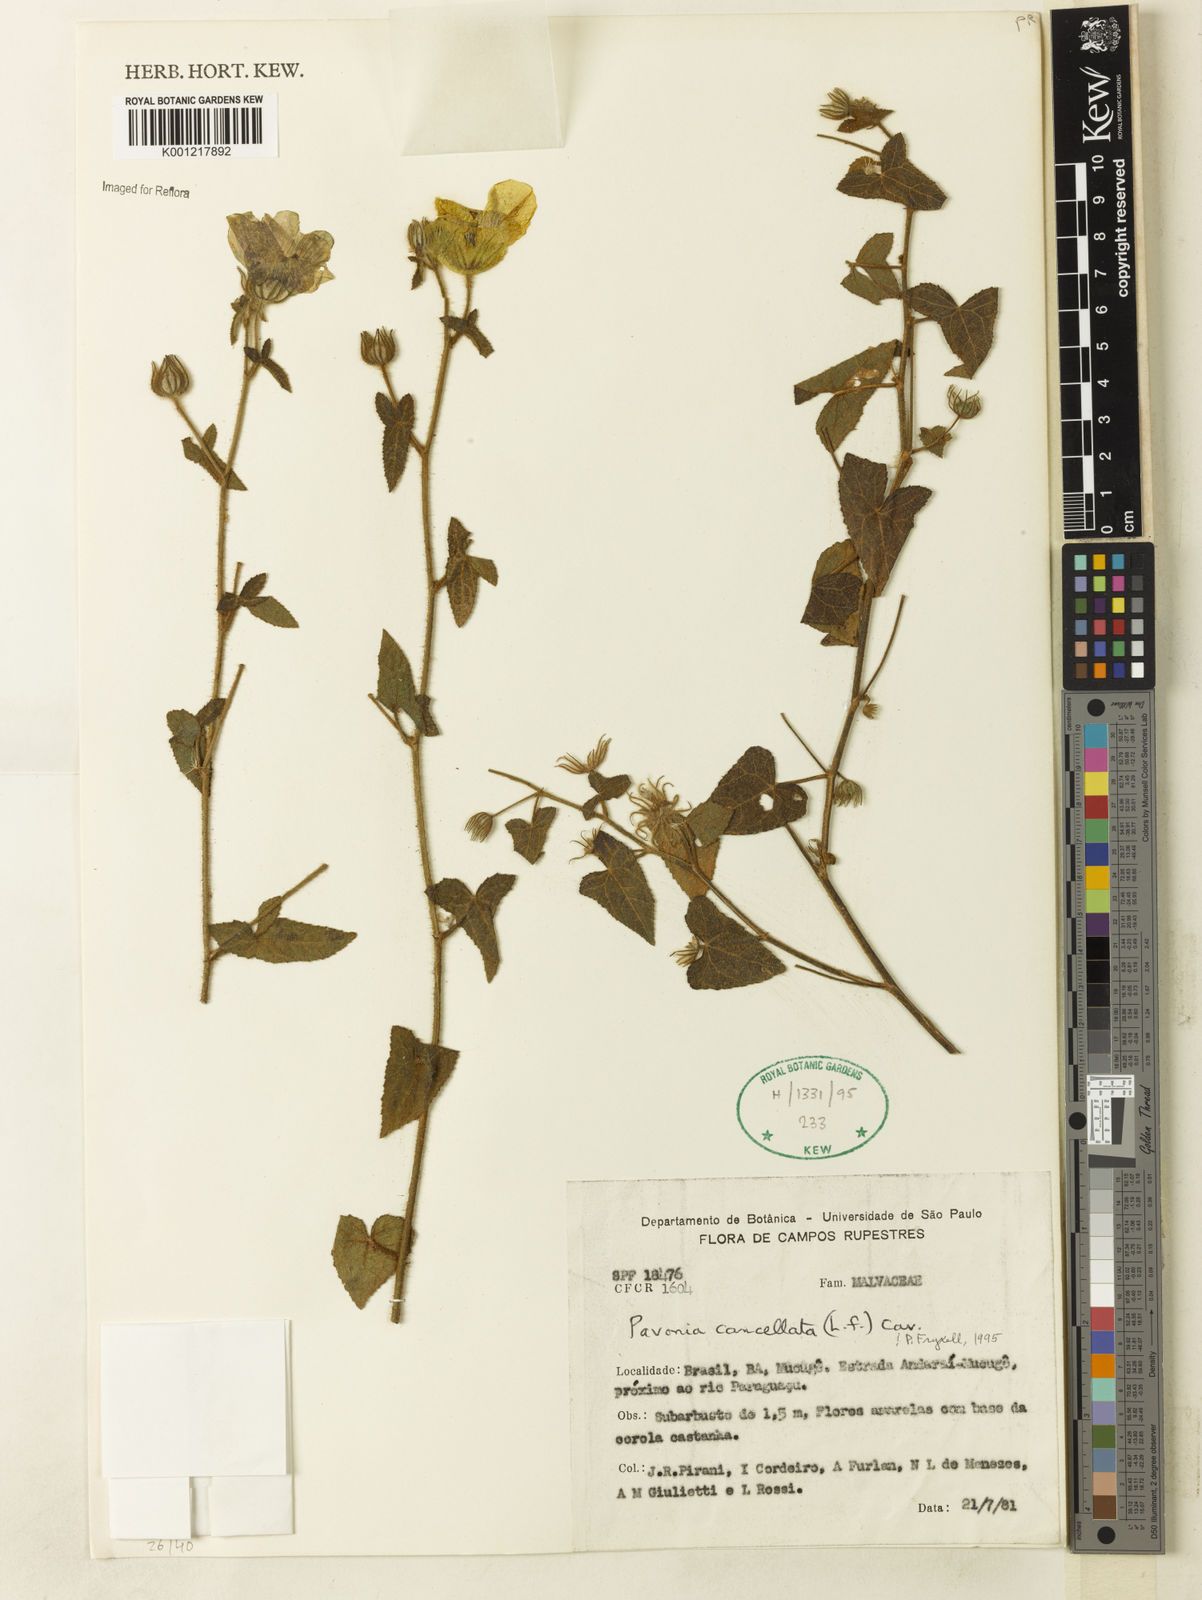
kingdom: Plantae
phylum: Tracheophyta
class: Magnoliopsida
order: Malvales
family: Malvaceae
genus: Pavonia
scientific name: Pavonia cancellata
